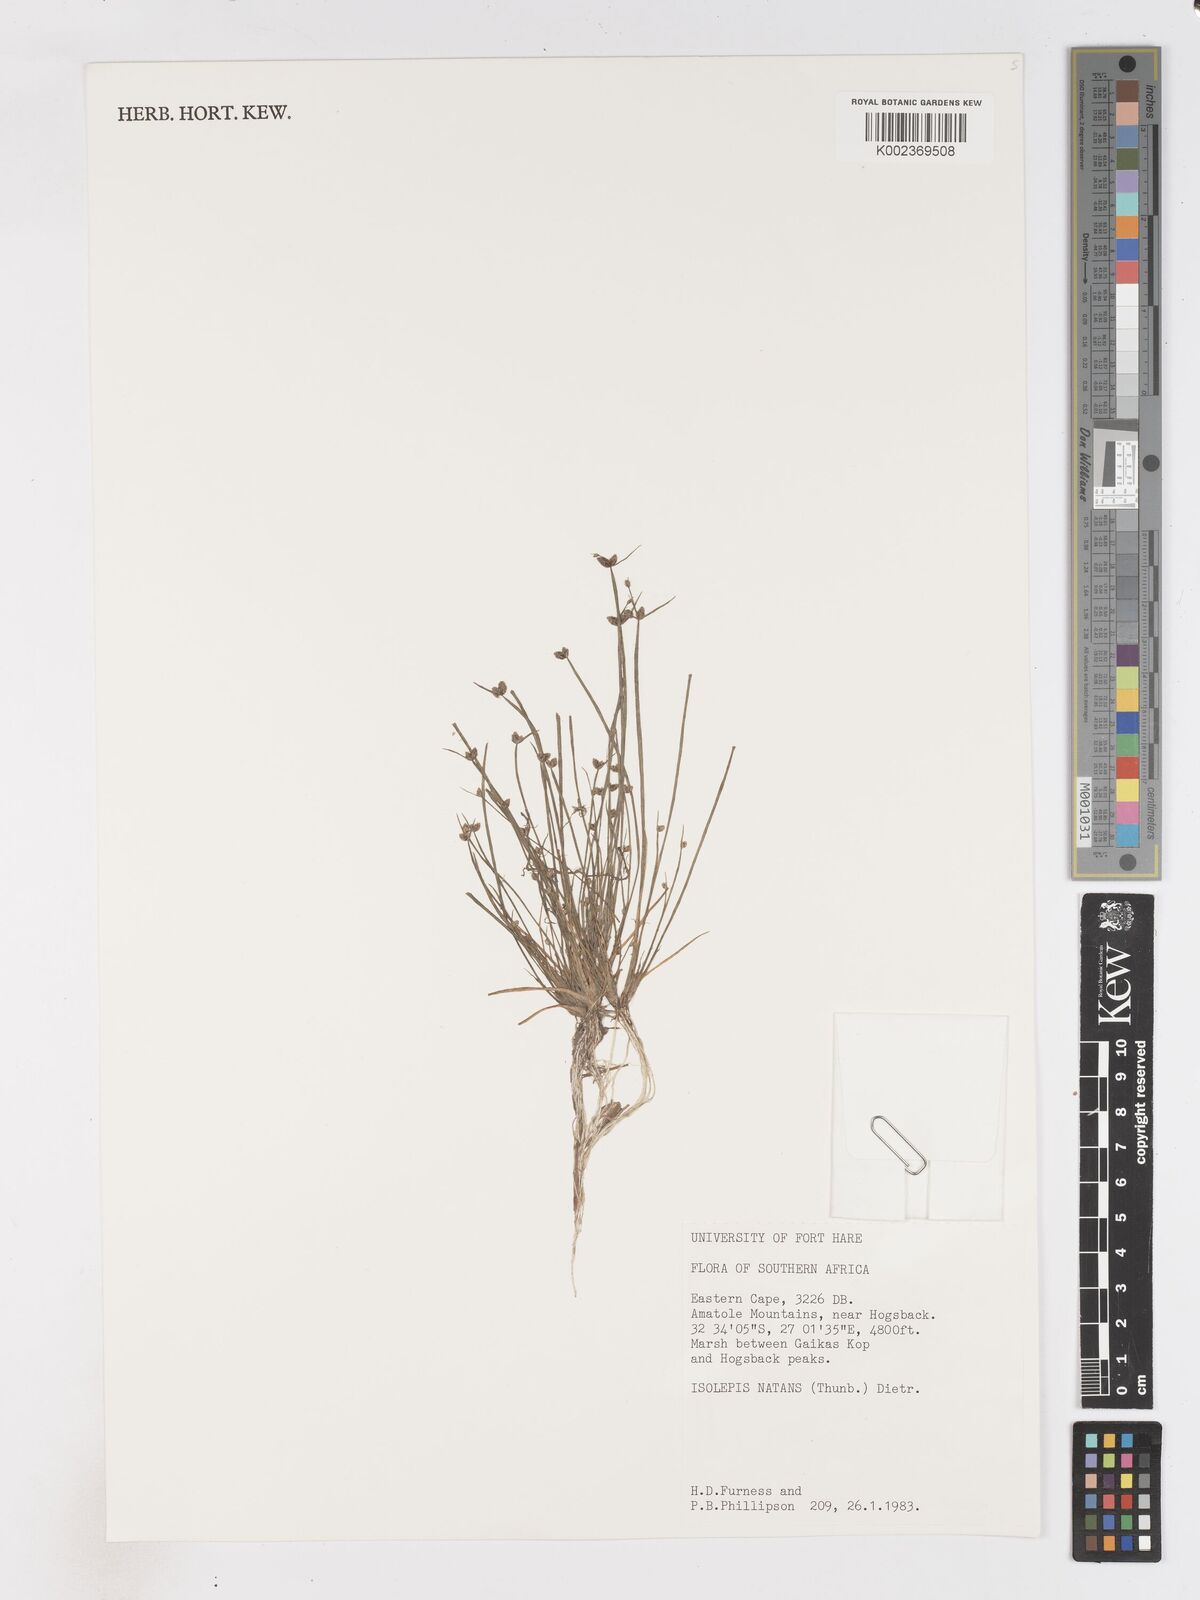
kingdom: Plantae
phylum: Tracheophyta
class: Liliopsida
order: Poales
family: Cyperaceae
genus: Isolepis
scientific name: Isolepis natans
